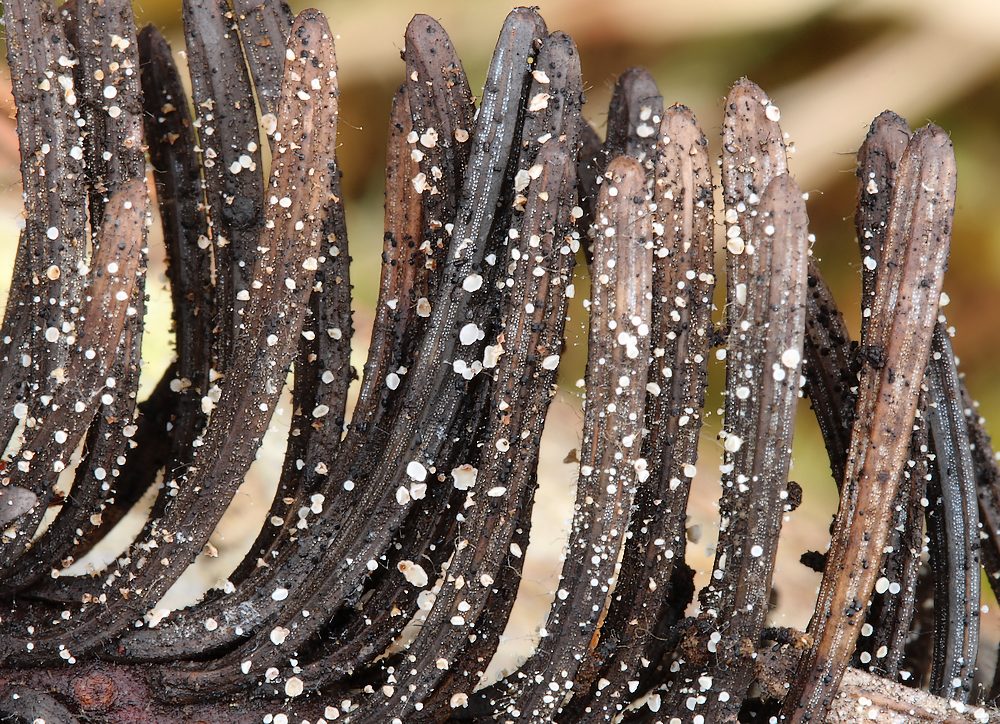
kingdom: Fungi
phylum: Ascomycota
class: Leotiomycetes
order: Helotiales
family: Hyaloscyphaceae
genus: Cistella
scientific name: Cistella acuum
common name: nåle-sirskive
